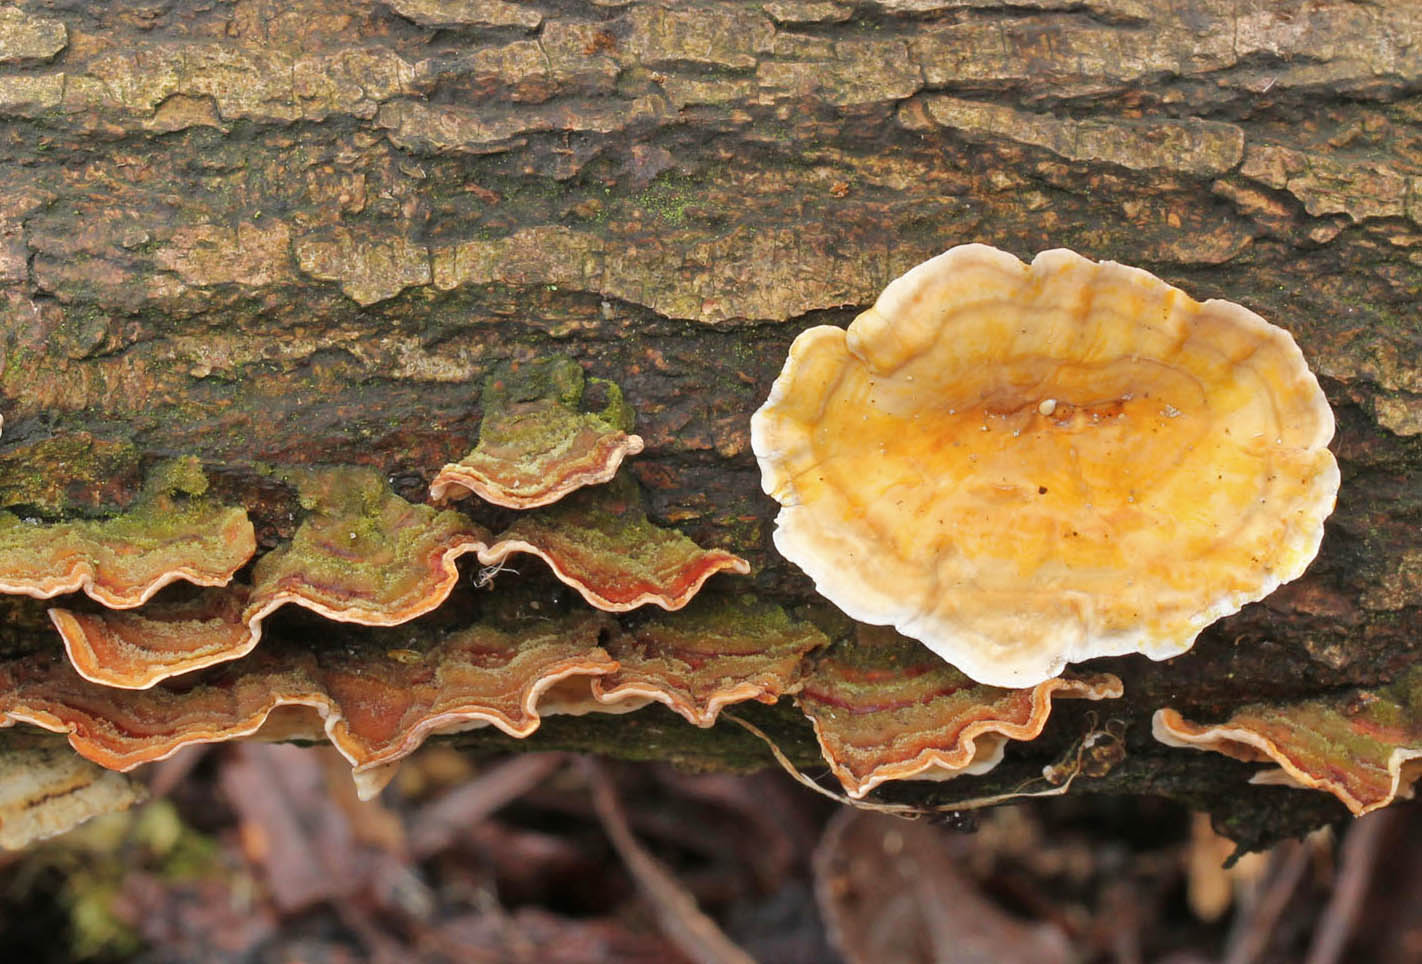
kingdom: Fungi
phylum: Basidiomycota
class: Agaricomycetes
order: Russulales
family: Stereaceae
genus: Stereum
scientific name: Stereum subtomentosum
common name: smuk lædersvamp
